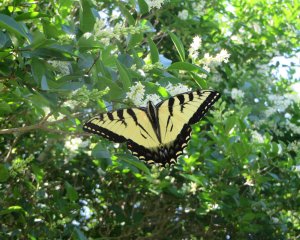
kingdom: Animalia
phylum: Arthropoda
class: Insecta
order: Lepidoptera
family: Papilionidae
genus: Pterourus
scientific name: Pterourus glaucus
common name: Eastern Tiger Swallowtail
